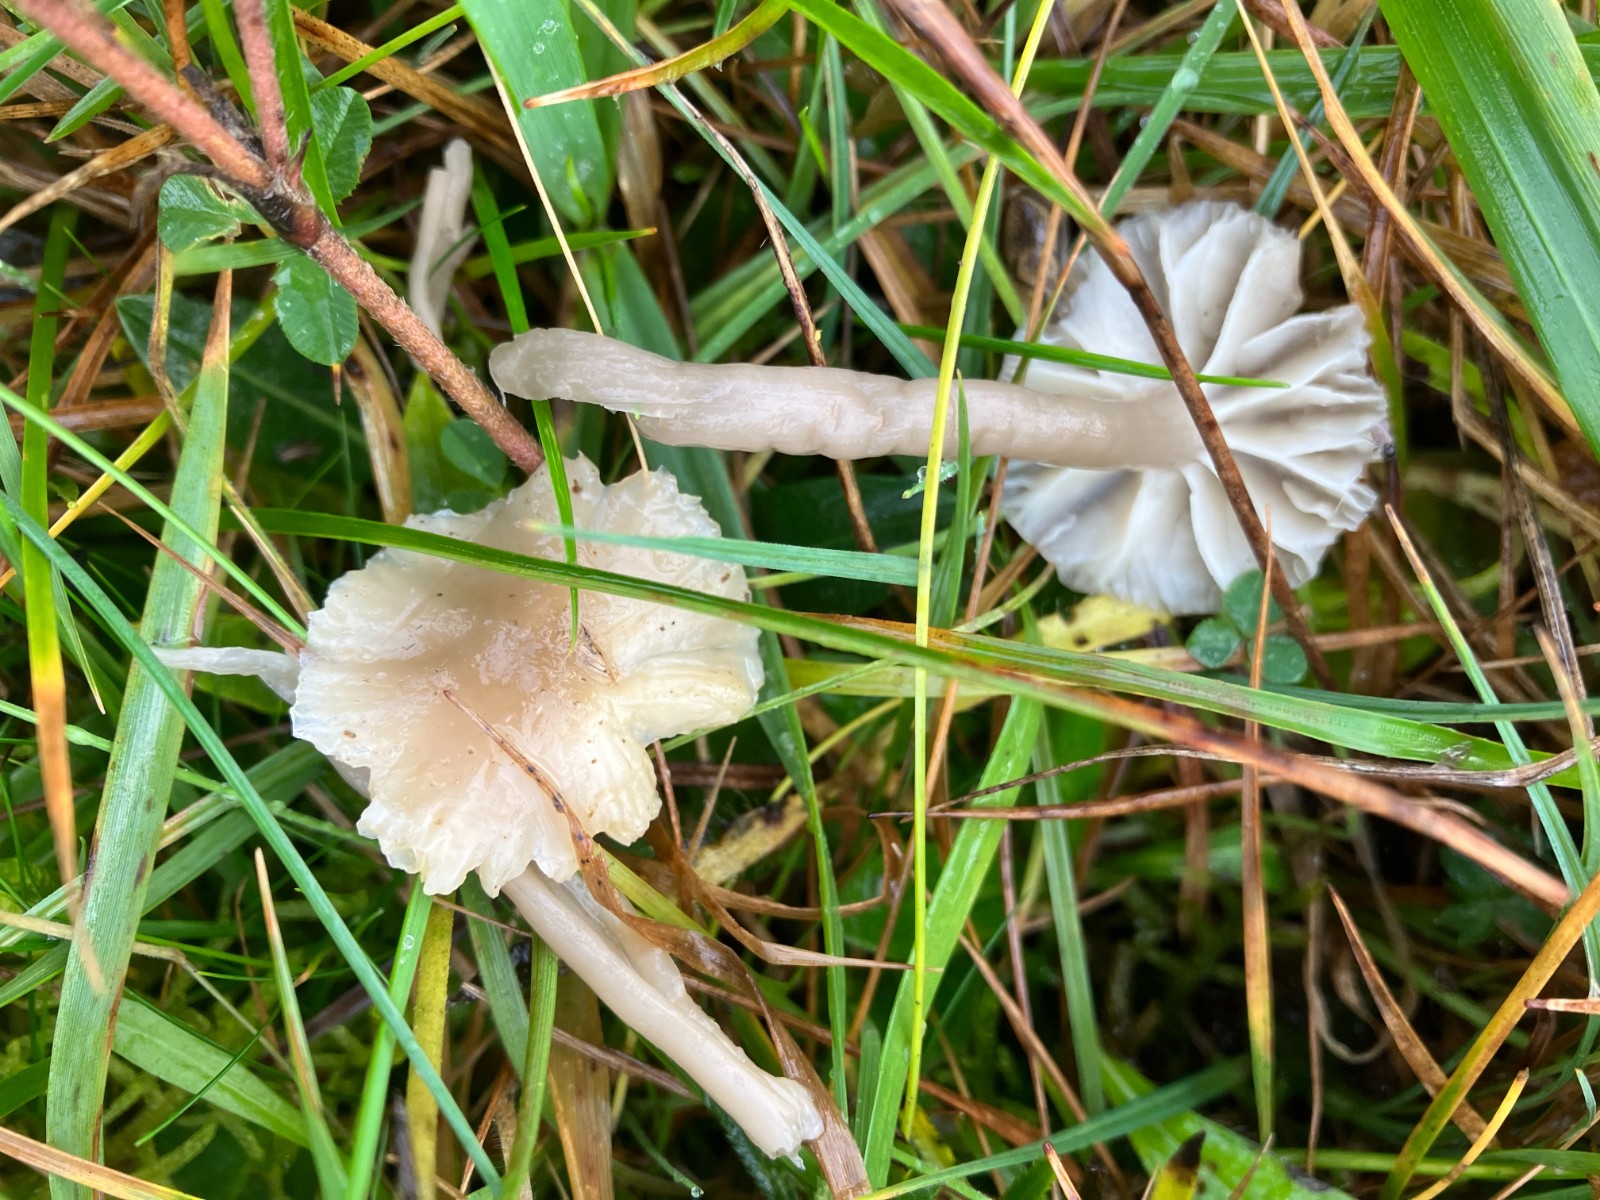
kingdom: Fungi
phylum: Basidiomycota
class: Agaricomycetes
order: Agaricales
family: Hygrophoraceae
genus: Gliophorus
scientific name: Gliophorus irrigatus
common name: slimet vokshat
